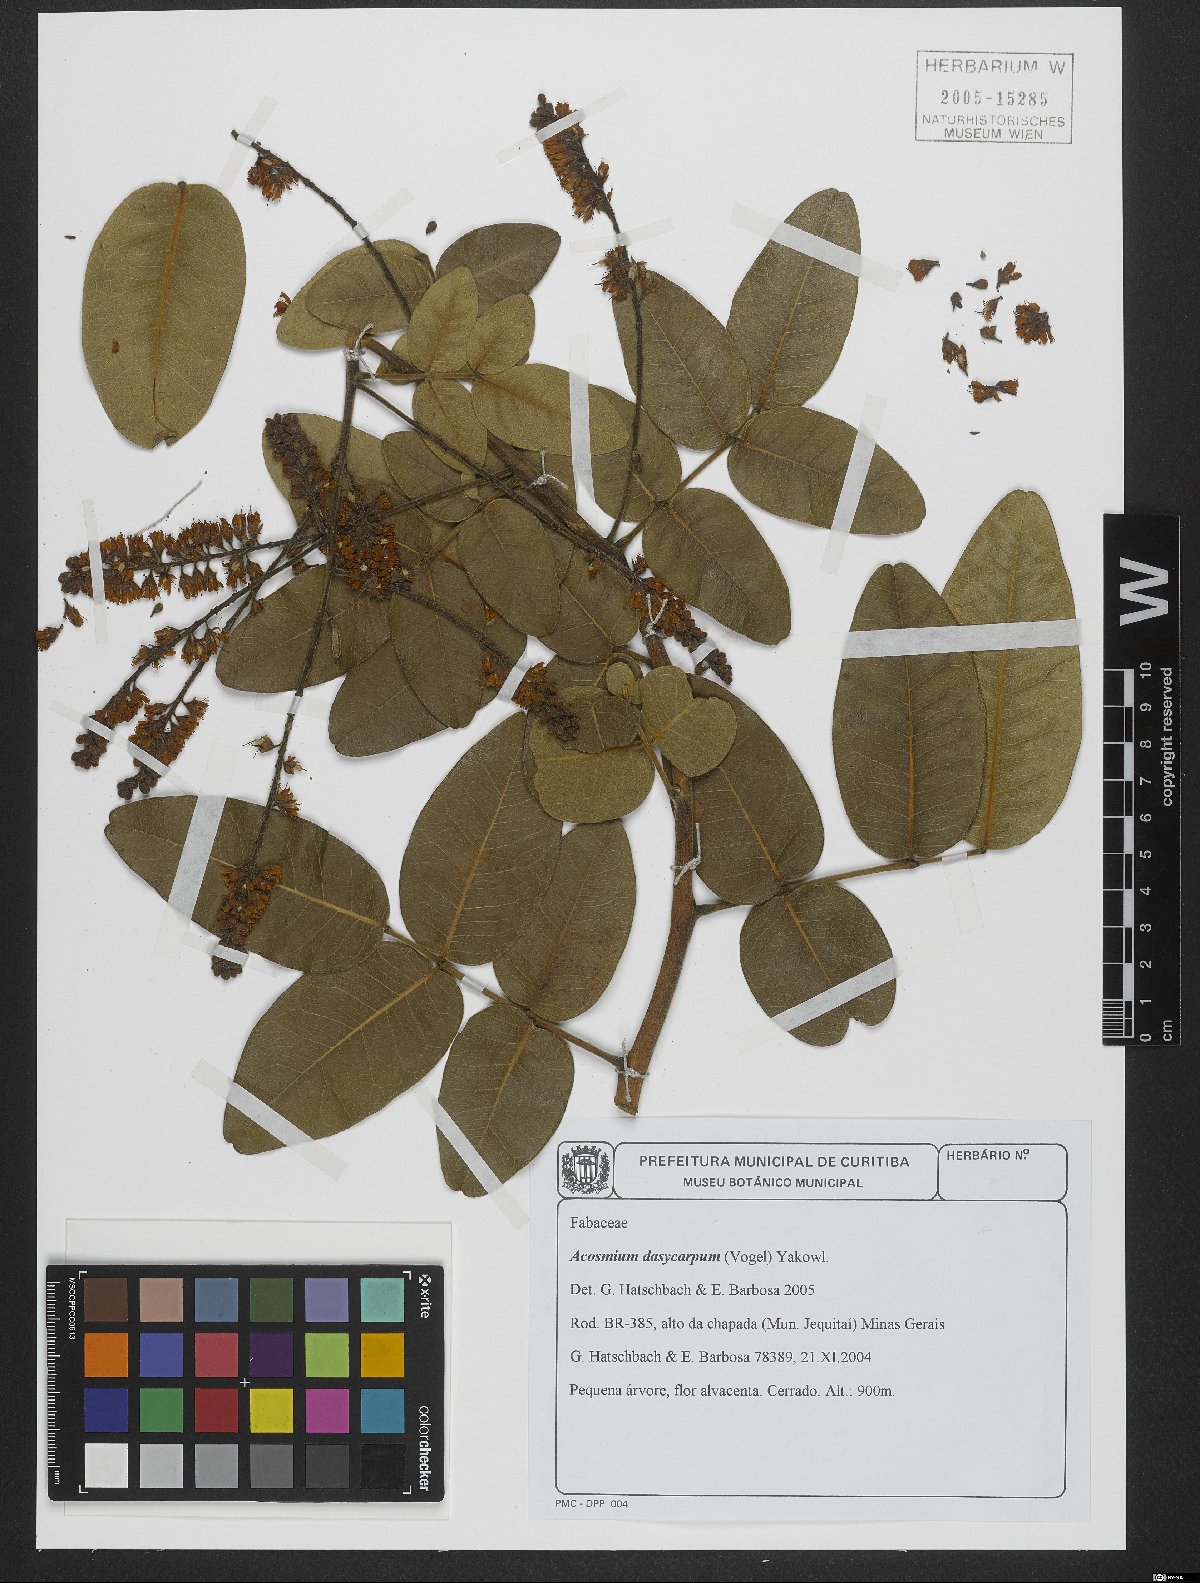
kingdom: Plantae
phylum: Tracheophyta
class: Magnoliopsida
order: Fabales
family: Fabaceae
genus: Leptolobium
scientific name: Leptolobium dasycarpum
